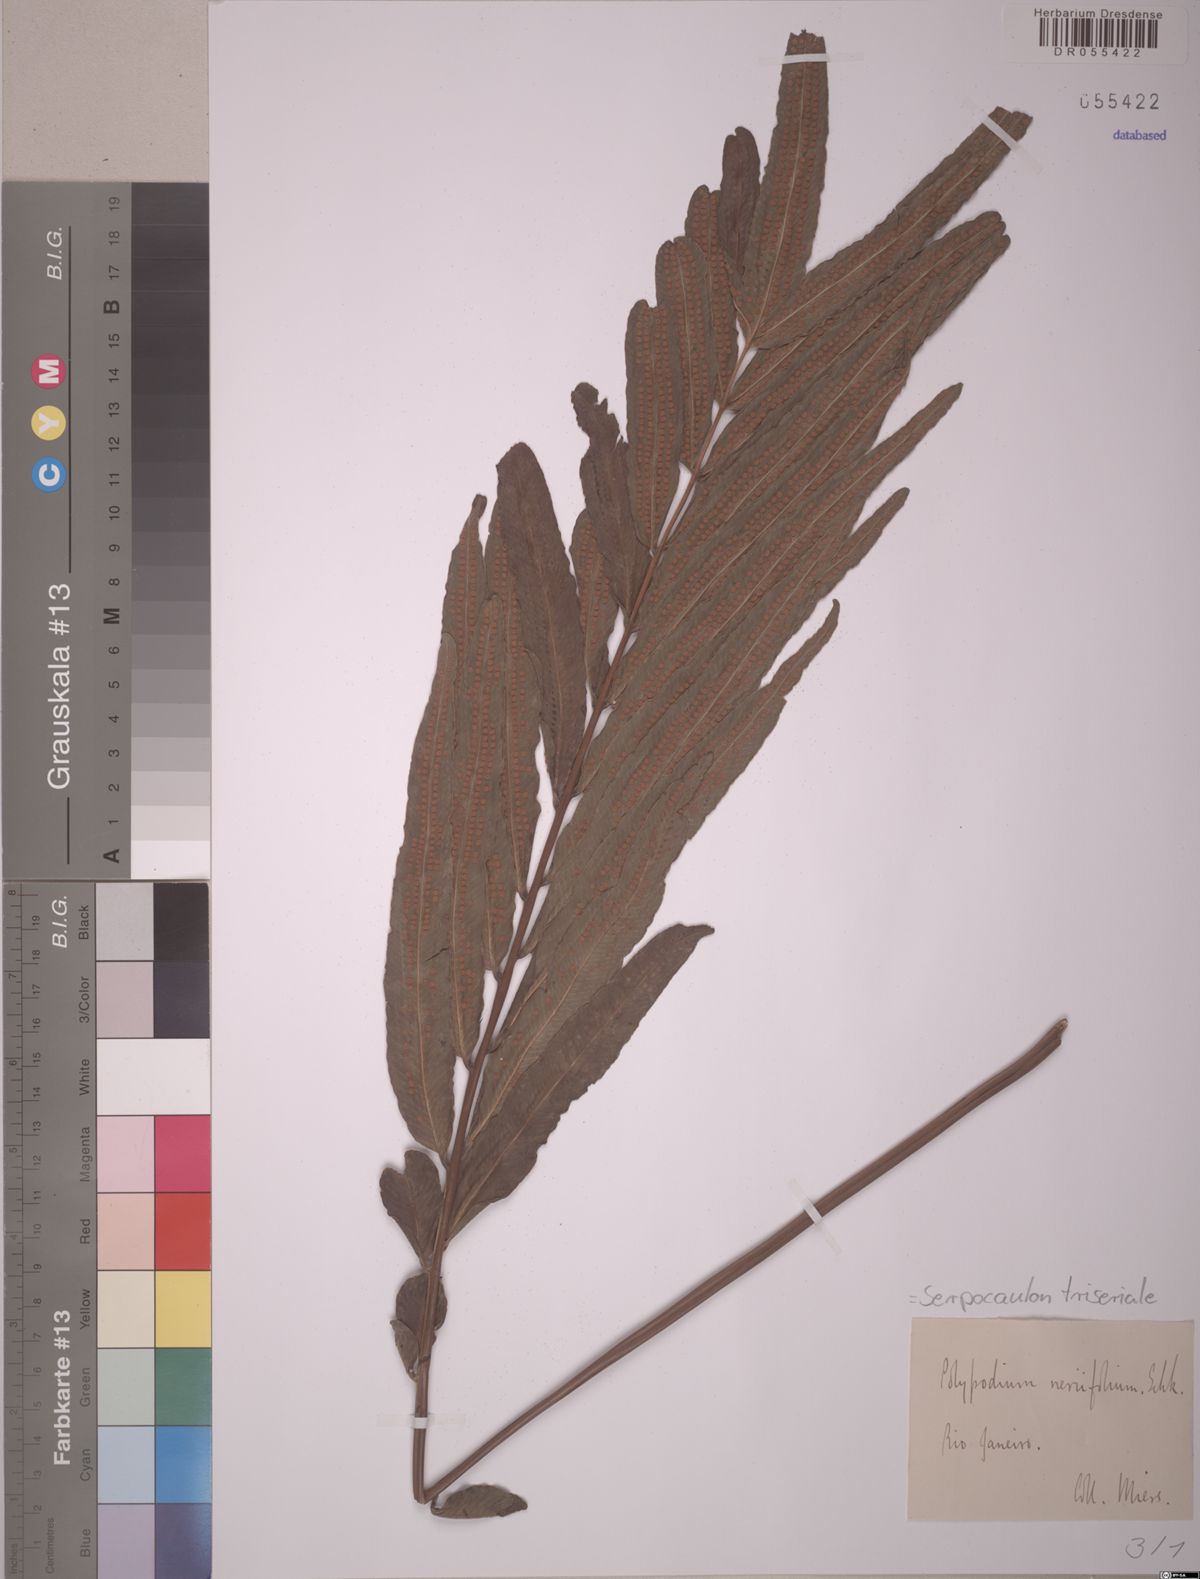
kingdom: Plantae
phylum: Tracheophyta
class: Polypodiopsida
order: Polypodiales
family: Polypodiaceae
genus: Serpocaulon
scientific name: Serpocaulon triseriale
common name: Angle-vein fern
